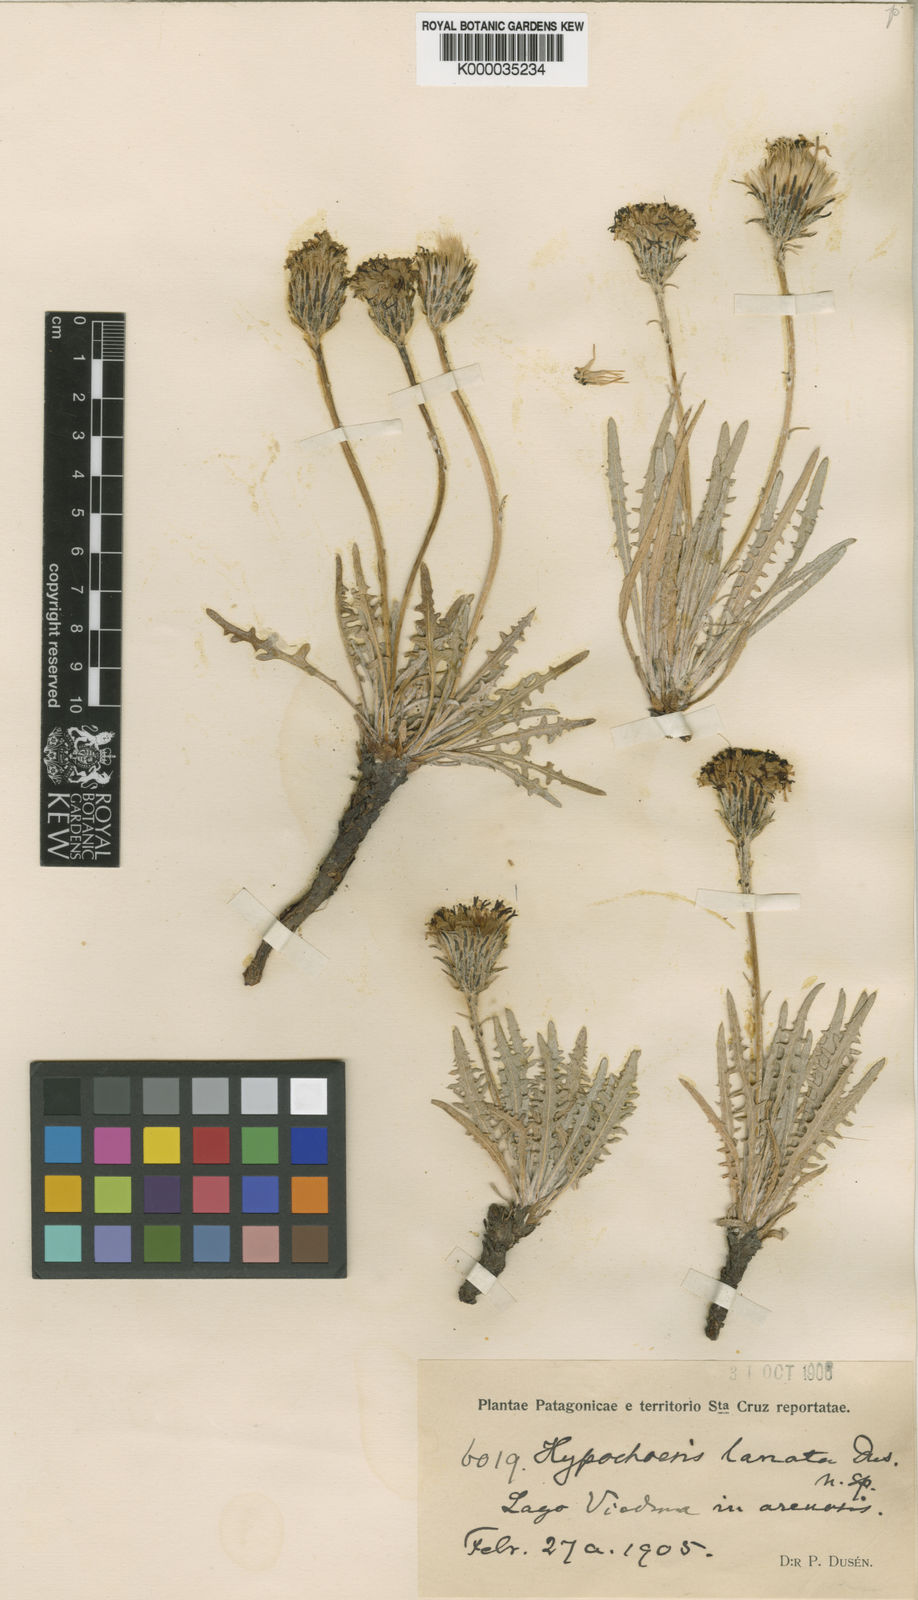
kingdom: Plantae
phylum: Tracheophyta
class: Magnoliopsida
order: Asterales
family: Asteraceae
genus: Hypochaeris
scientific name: Hypochaeris incana
